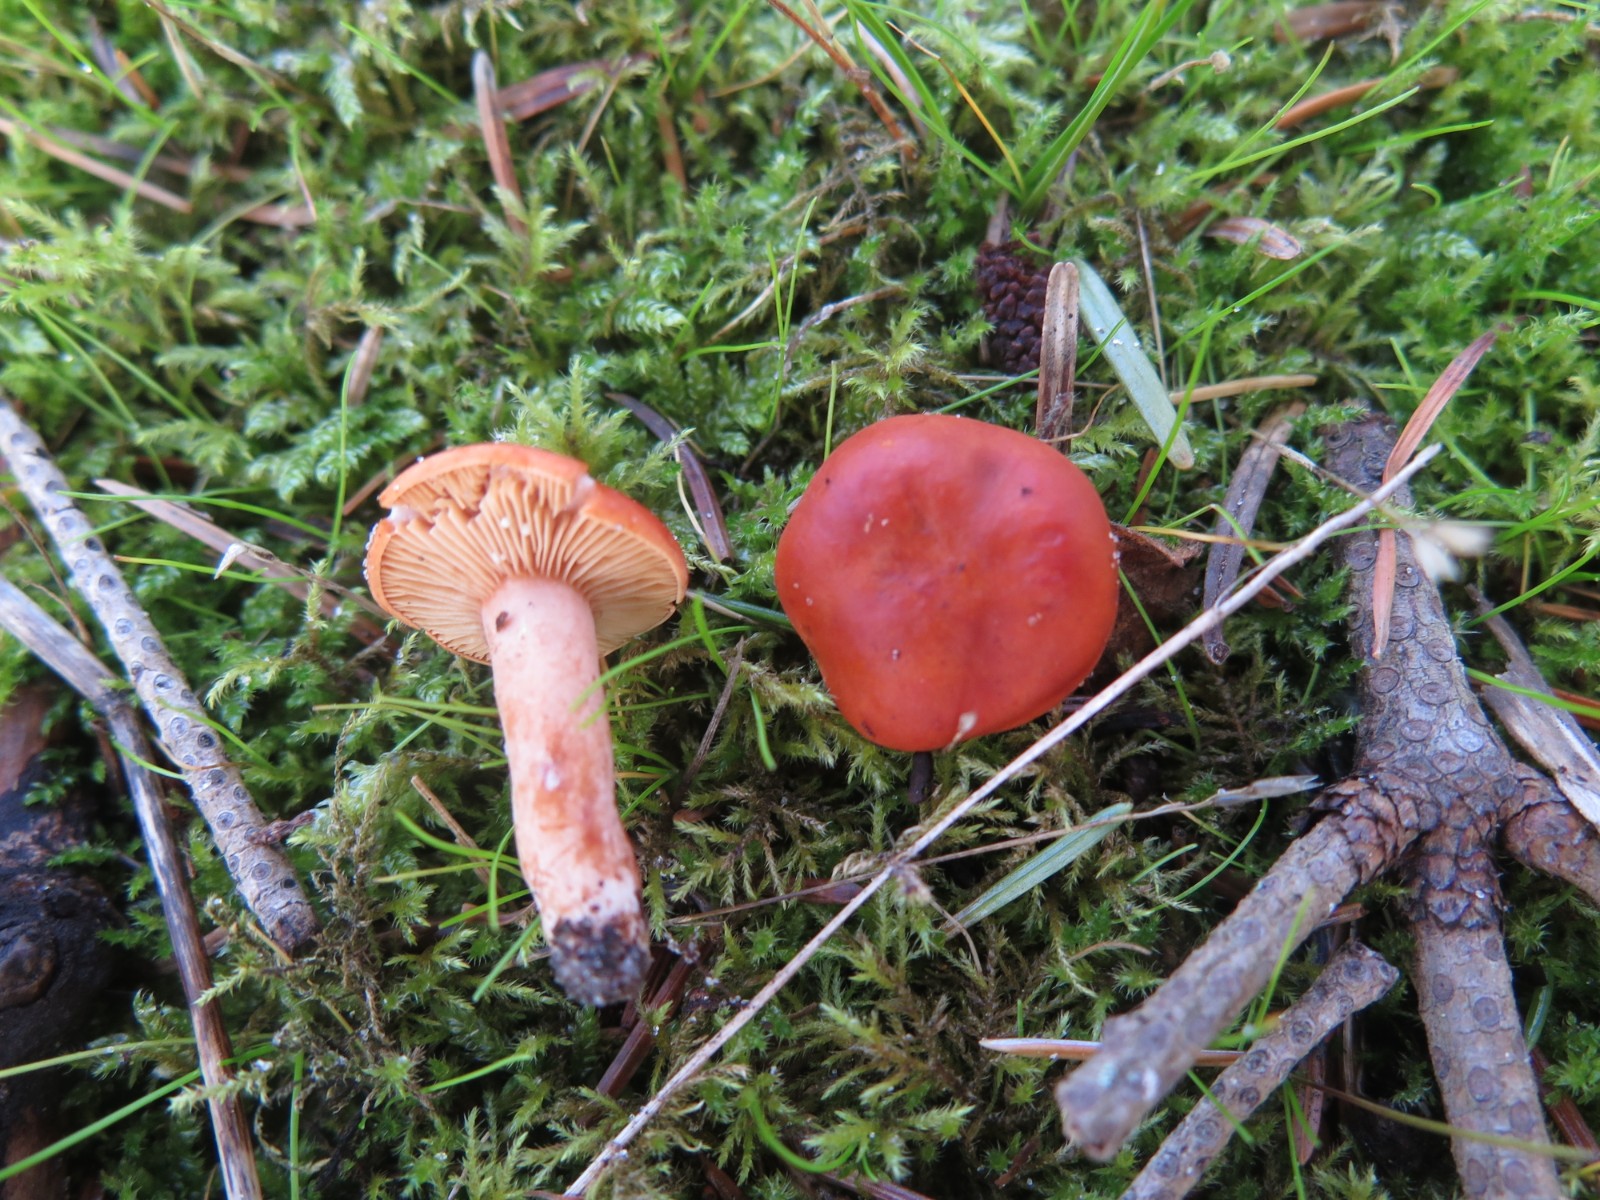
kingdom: Fungi
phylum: Basidiomycota
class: Agaricomycetes
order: Russulales
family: Russulaceae
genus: Lactarius
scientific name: Lactarius aurantiacus
